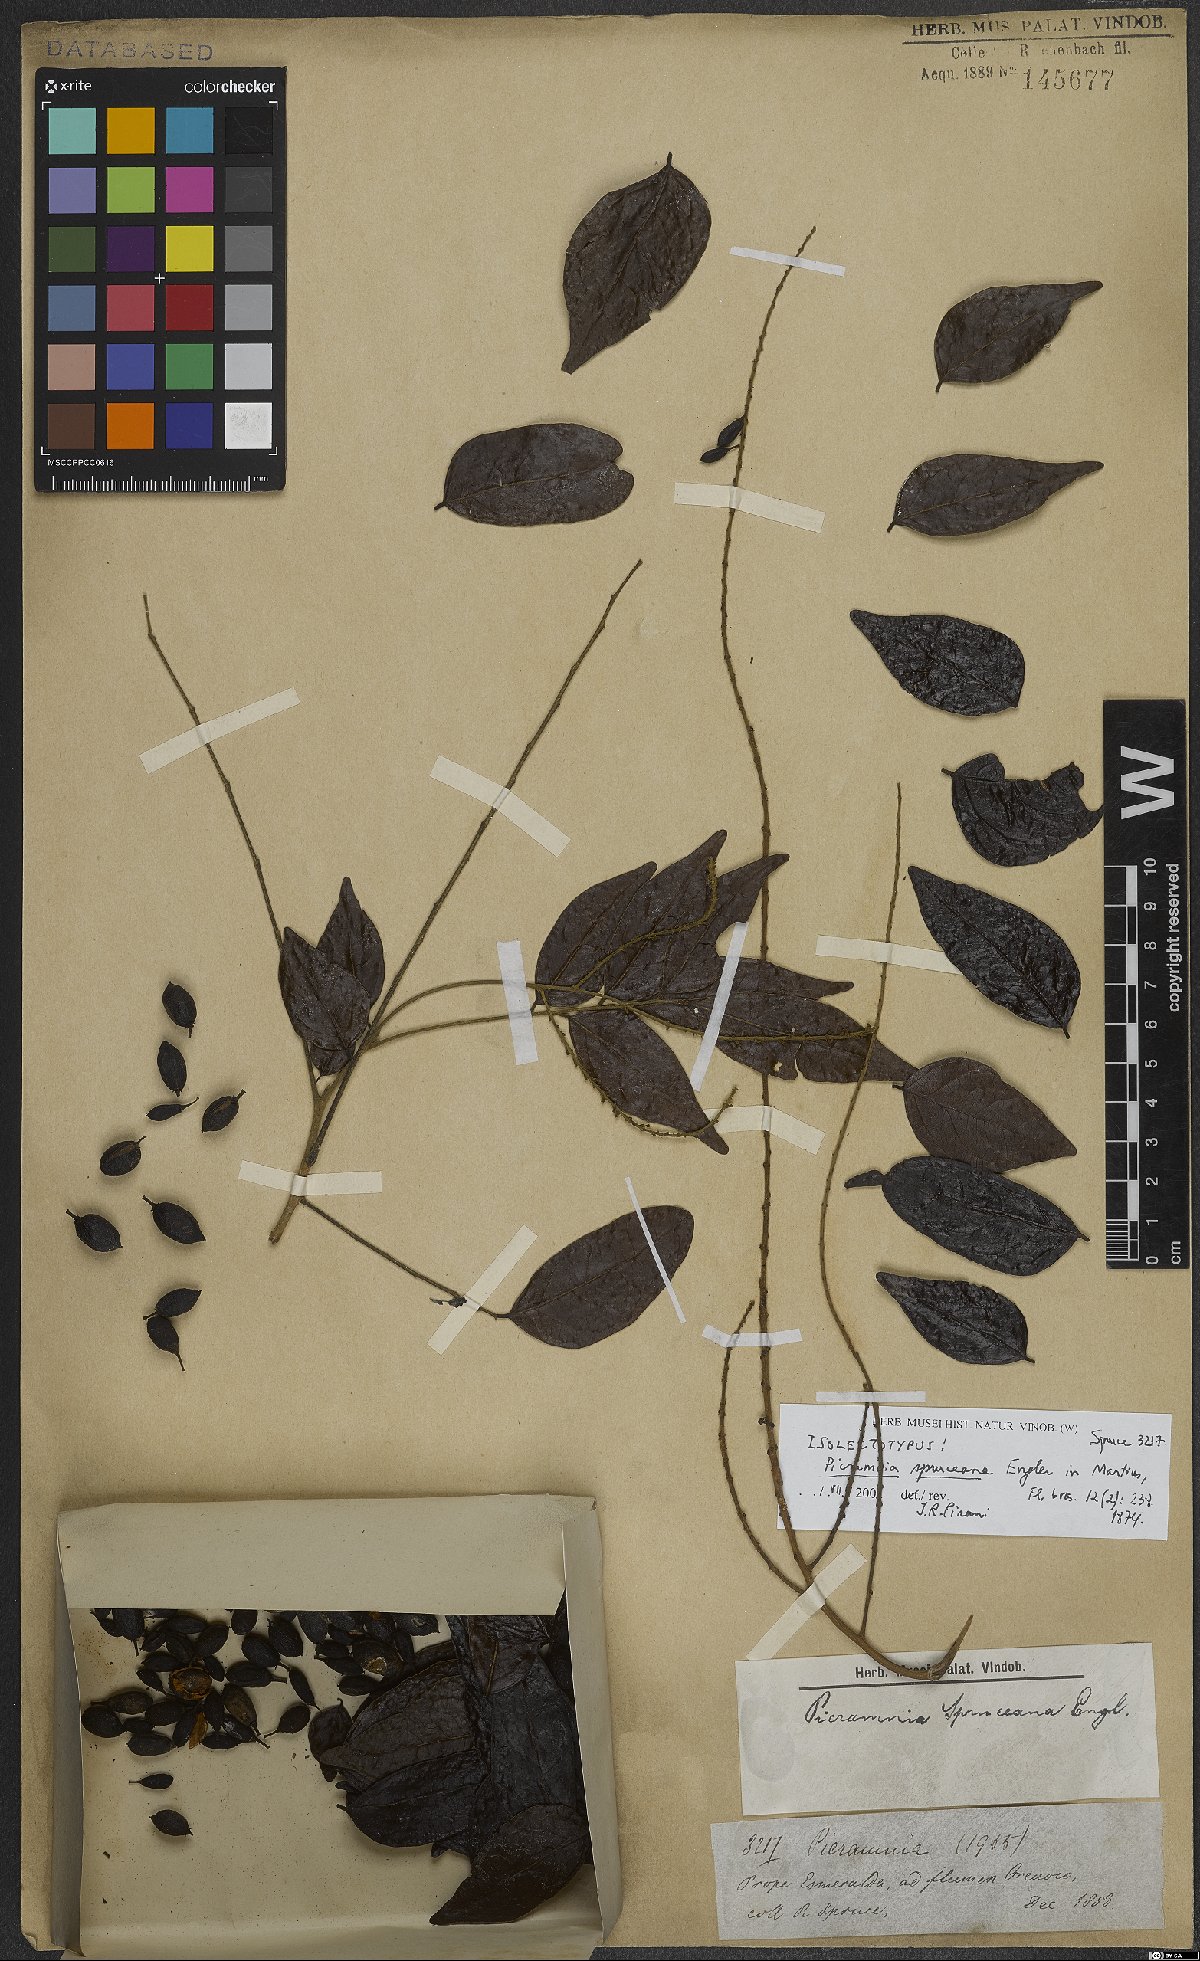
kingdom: Plantae
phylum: Tracheophyta
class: Magnoliopsida
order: Picramniales
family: Picramniaceae
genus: Picramnia
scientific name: Picramnia spruceana
